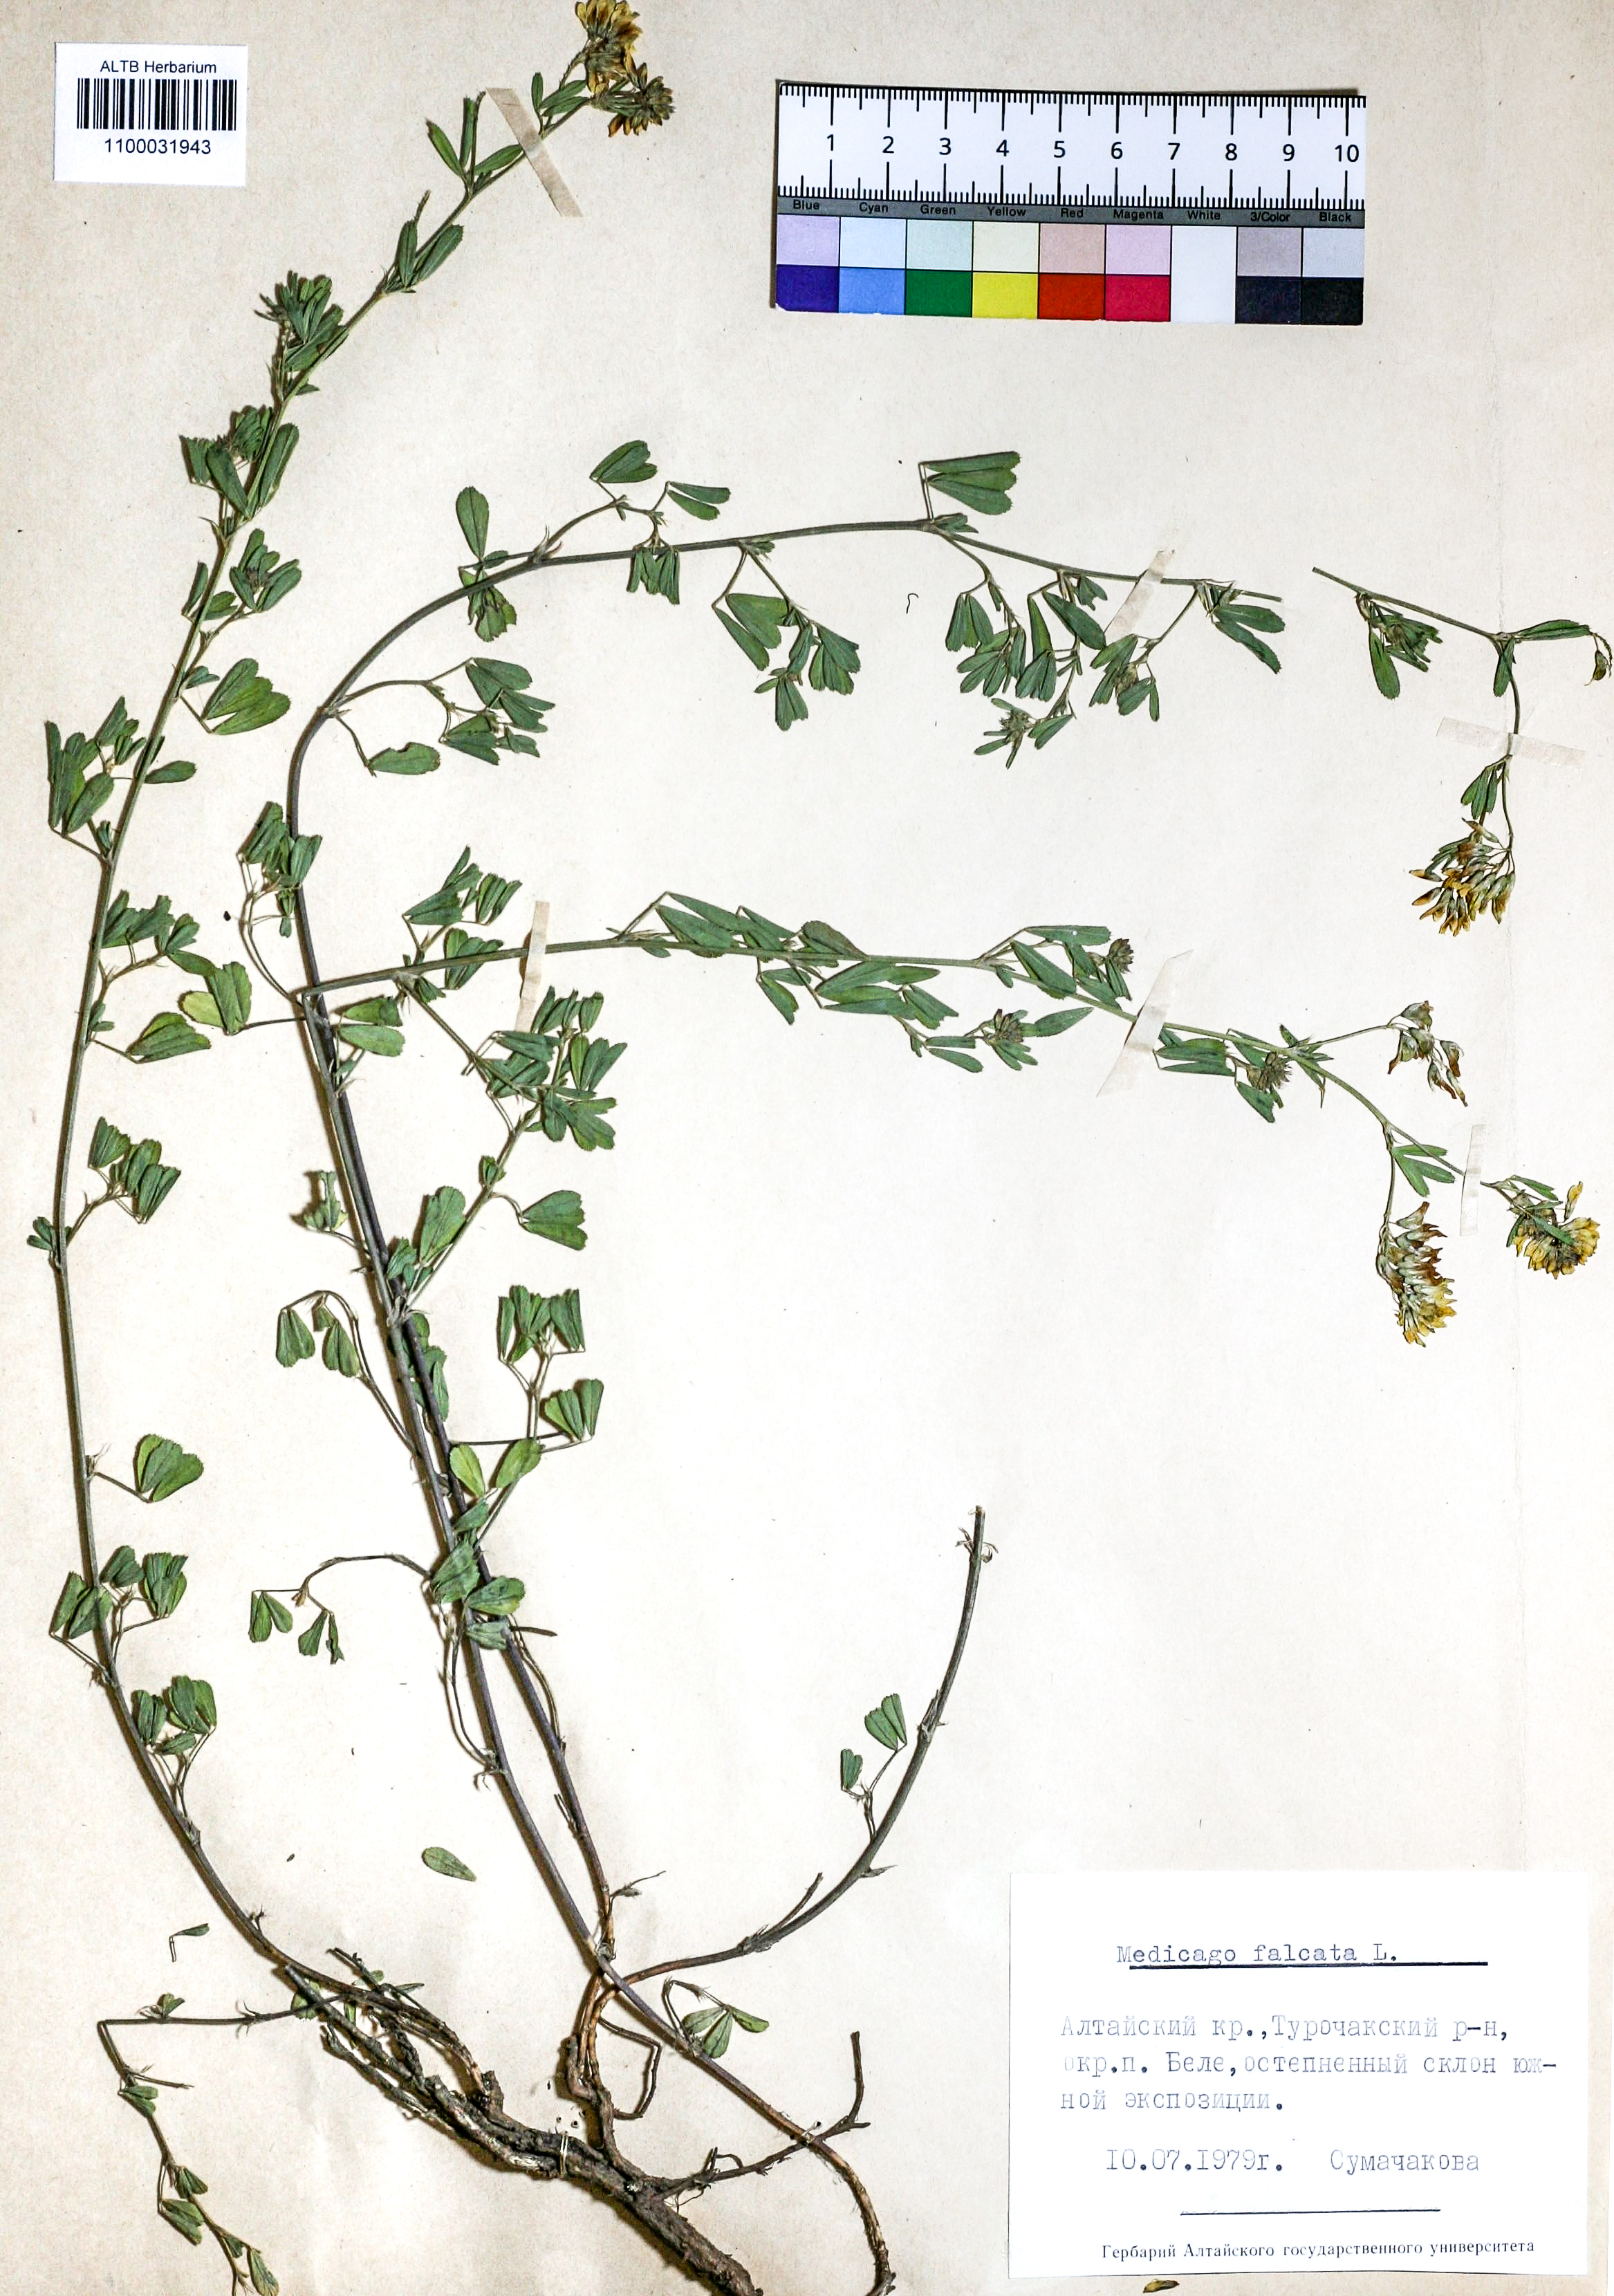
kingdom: Plantae
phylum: Tracheophyta
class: Magnoliopsida
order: Fabales
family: Fabaceae
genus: Medicago
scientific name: Medicago falcata
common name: Sickle medick
